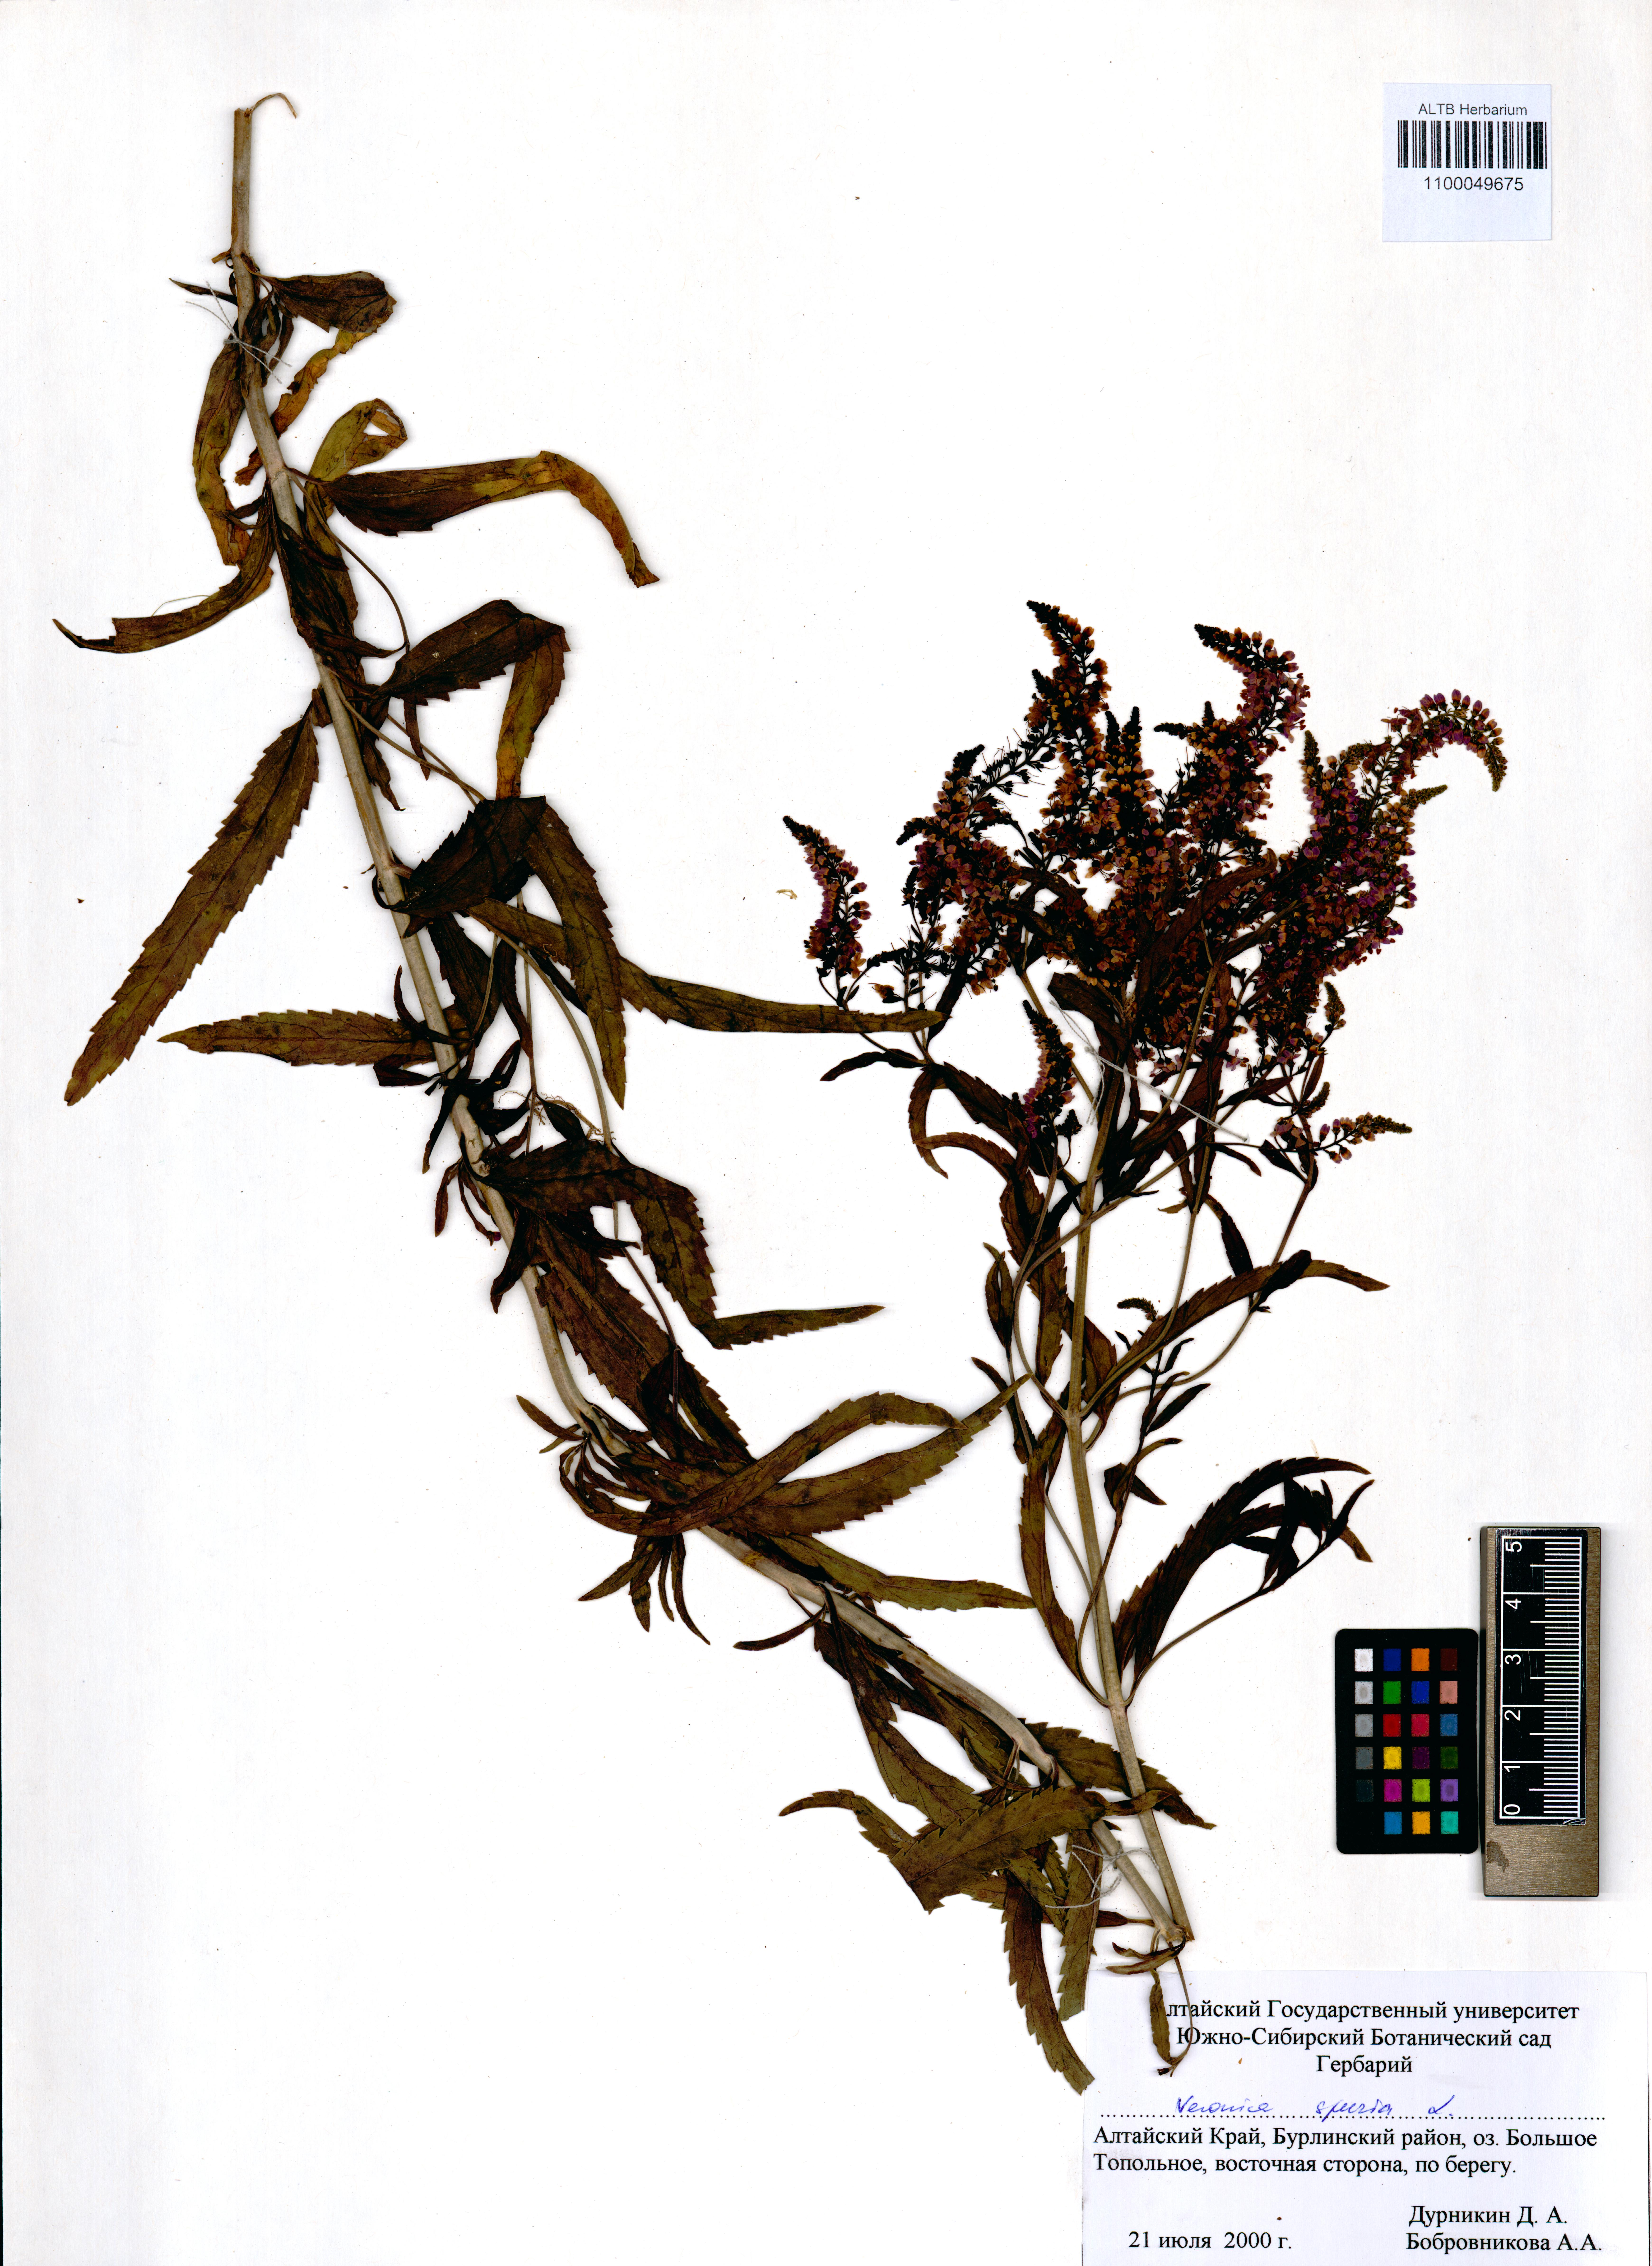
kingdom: Plantae
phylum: Tracheophyta
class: Magnoliopsida
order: Lamiales
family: Plantaginaceae
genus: Veronica
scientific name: Veronica spuria
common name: Bastard speedwell
